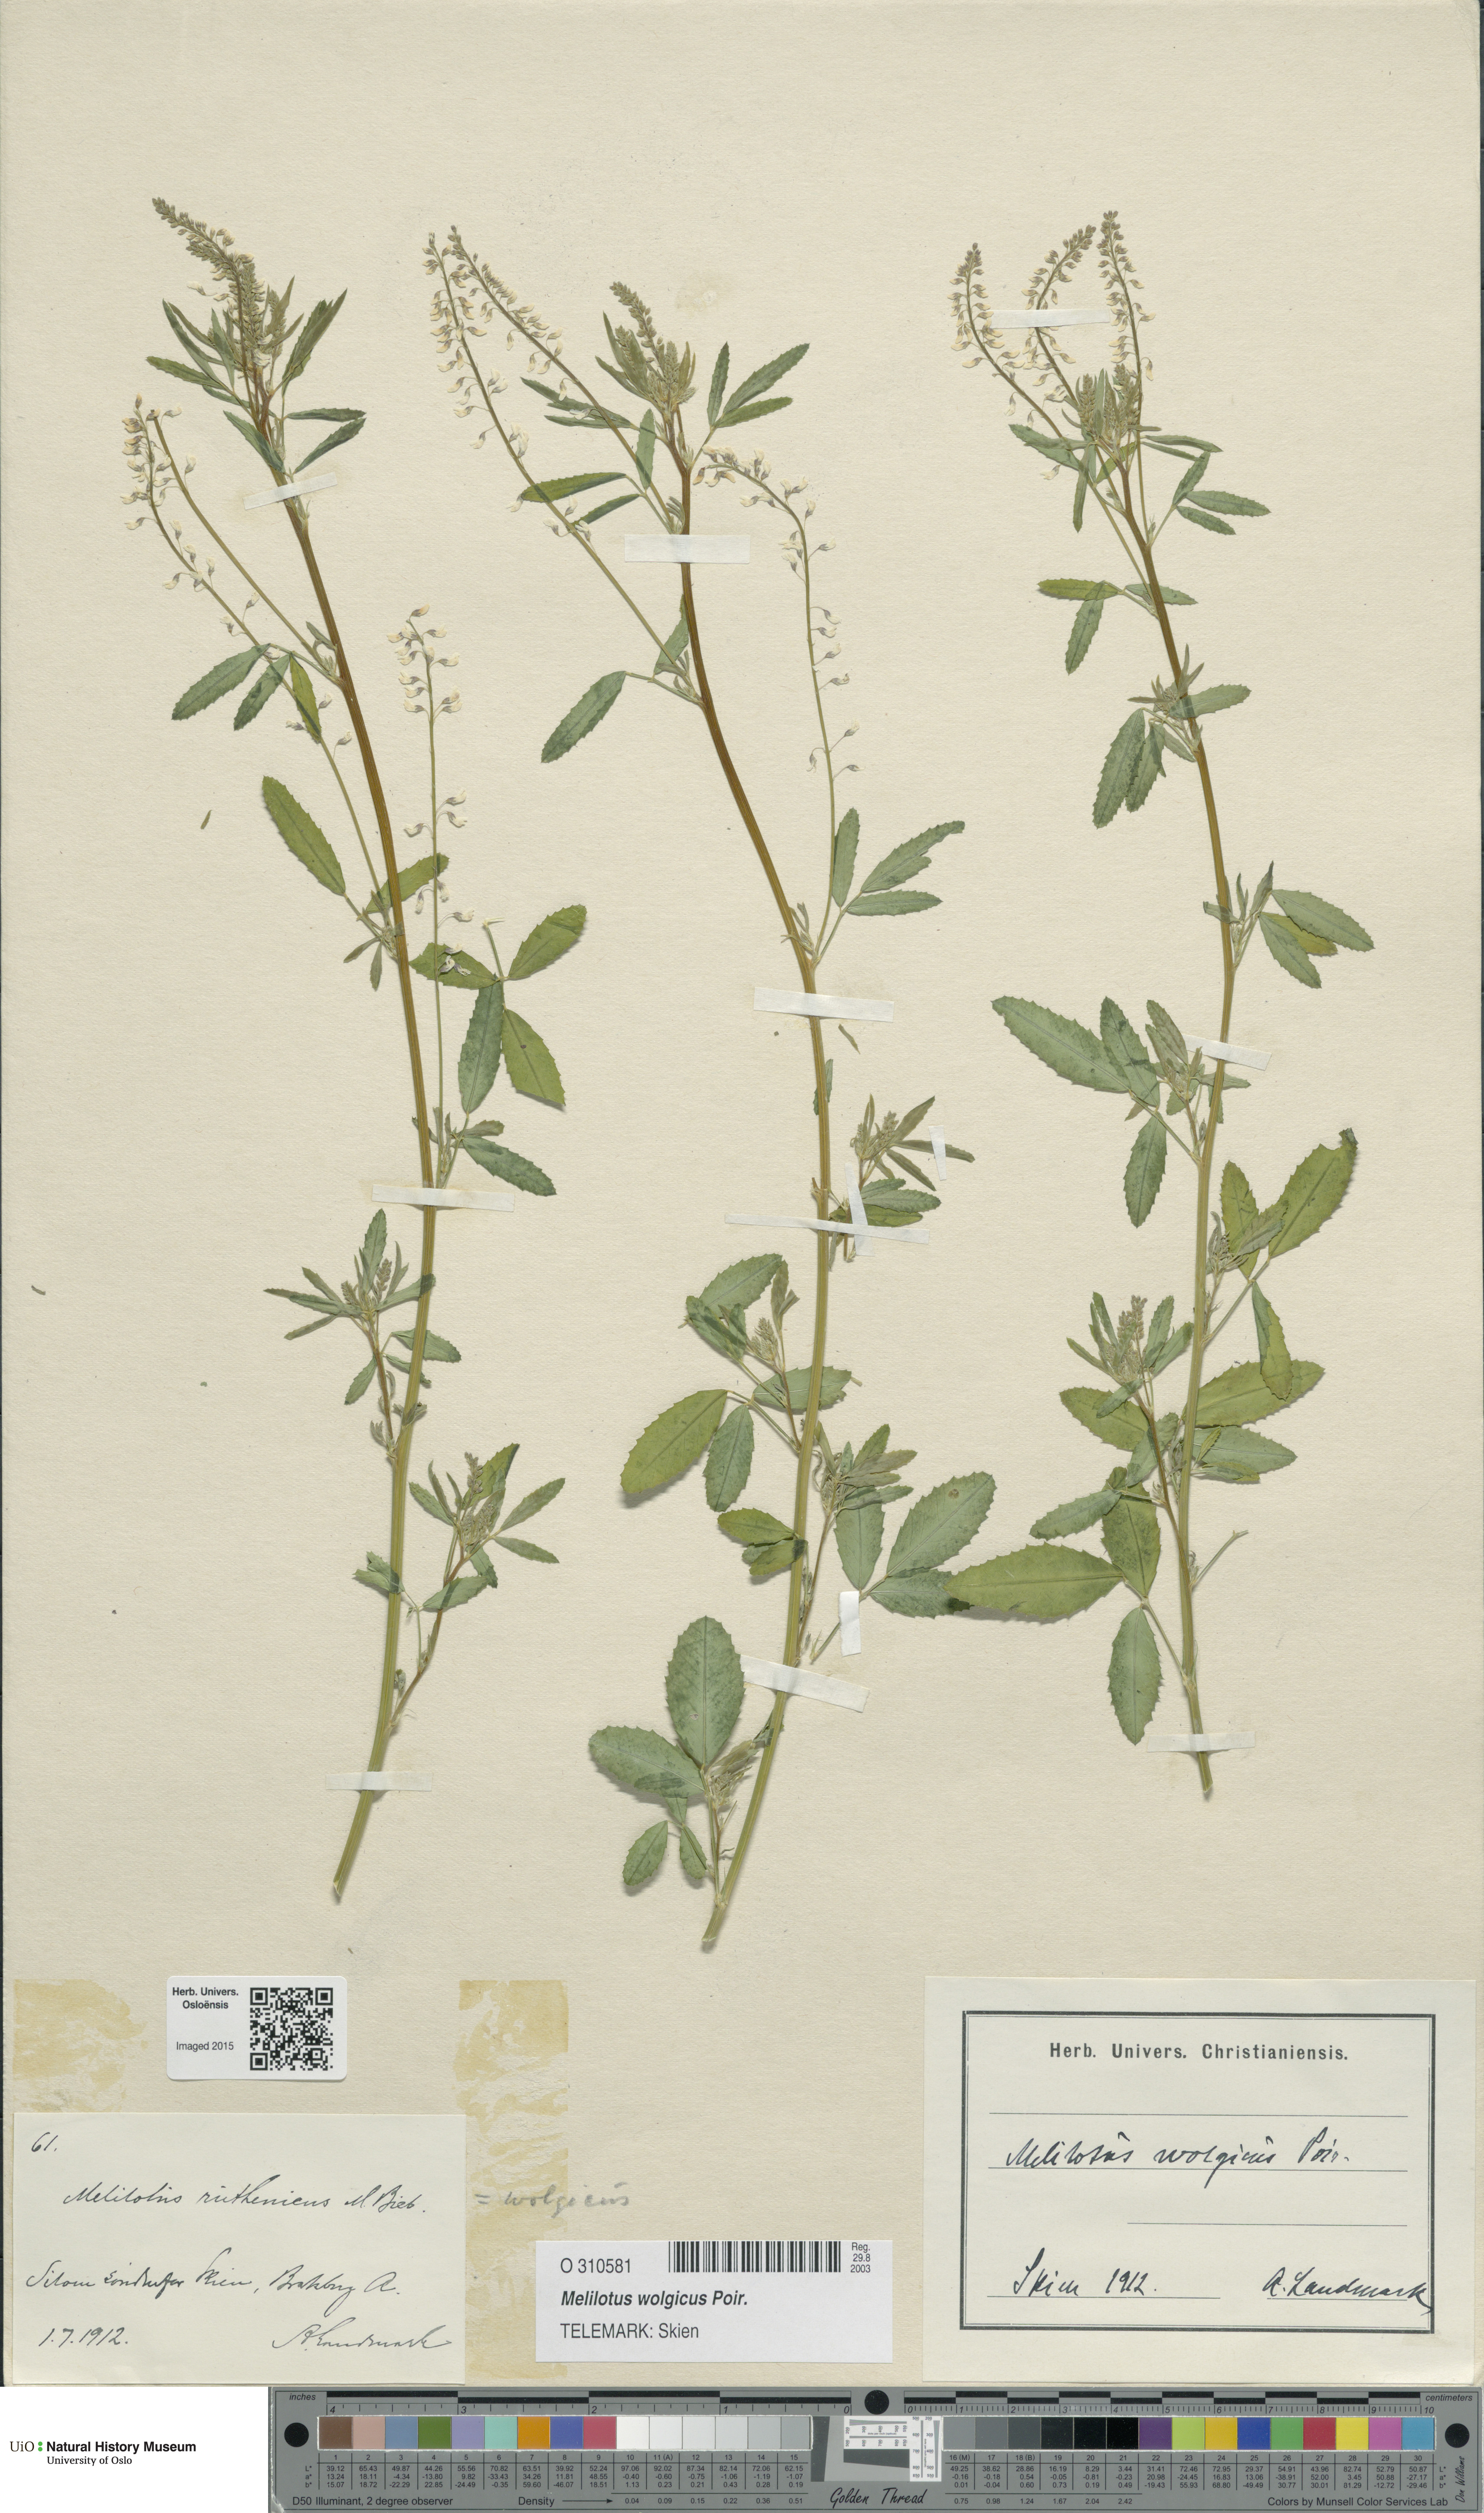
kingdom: Plantae
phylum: Tracheophyta
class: Magnoliopsida
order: Fabales
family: Fabaceae
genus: Melilotus
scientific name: Melilotus wolgicus
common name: Volga sweet-clover
